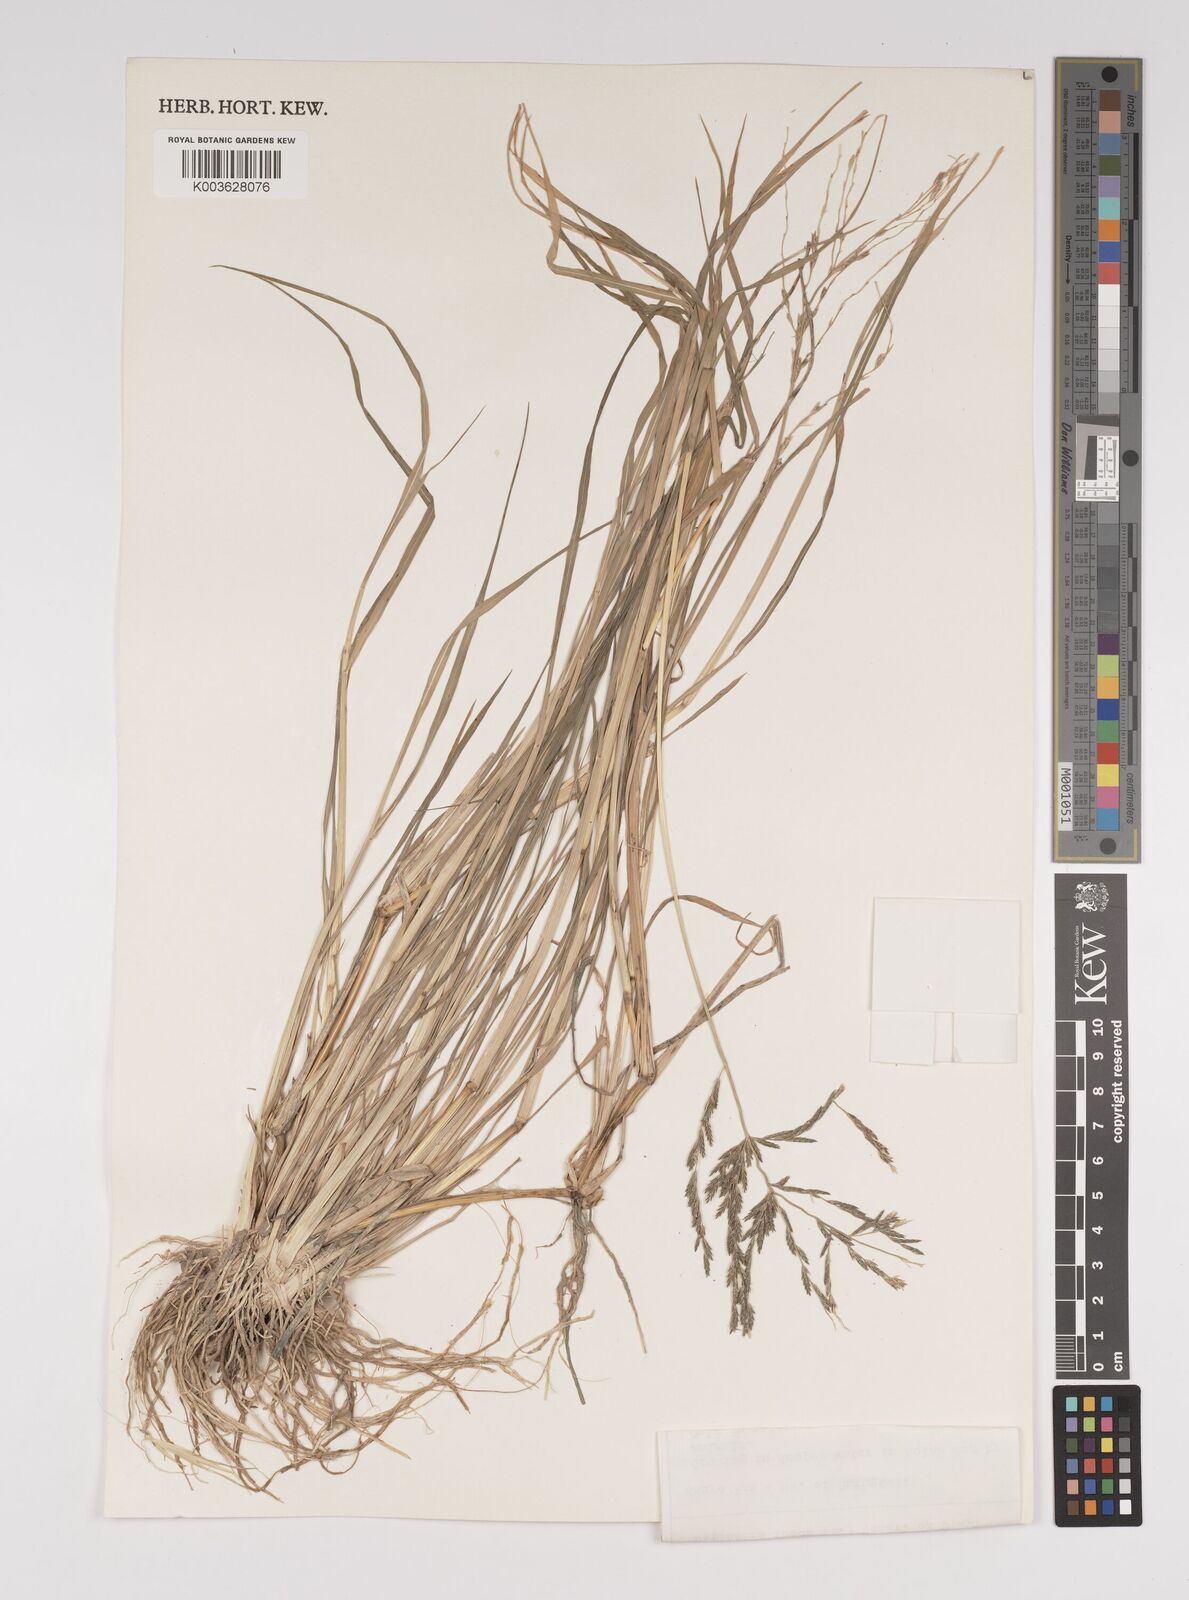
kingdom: Plantae
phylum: Tracheophyta
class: Liliopsida
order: Poales
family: Poaceae
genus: Diplachne
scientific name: Diplachne fusca
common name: Brown beetle grass
